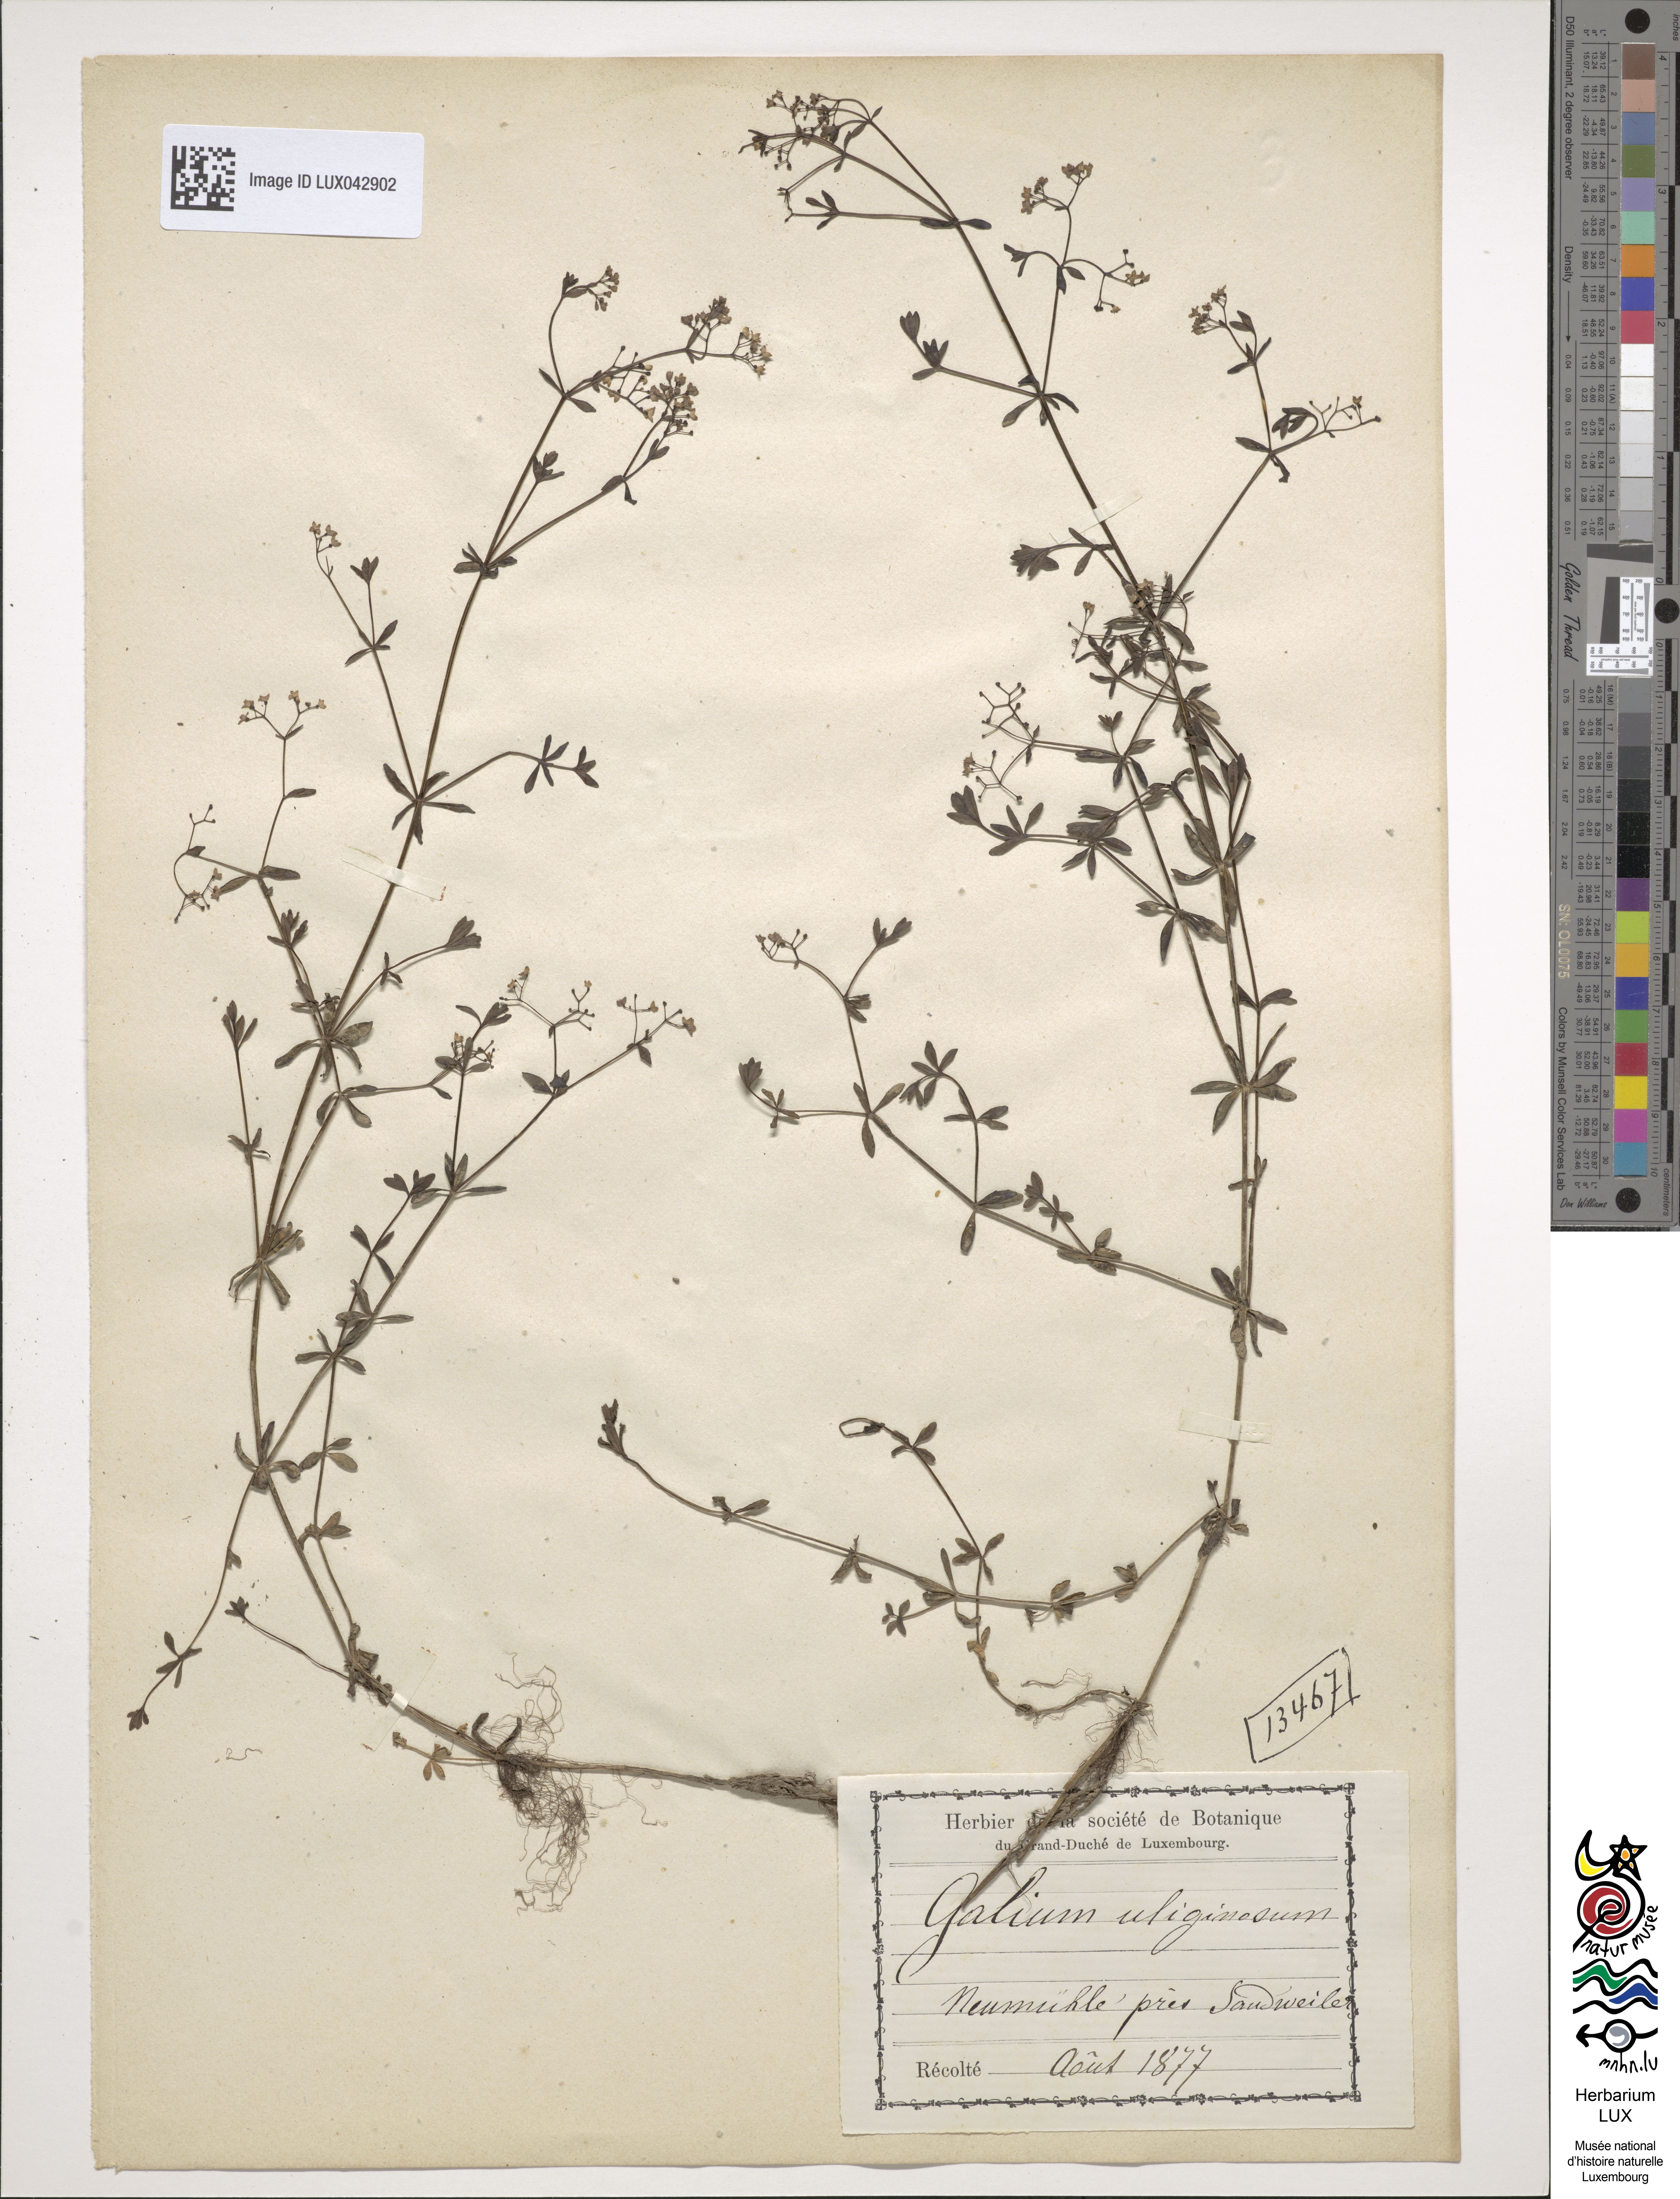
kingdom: Plantae
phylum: Tracheophyta
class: Magnoliopsida
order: Gentianales
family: Rubiaceae
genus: Galium
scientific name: Galium uliginosum
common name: Fen bedstraw
